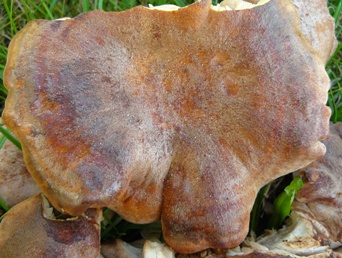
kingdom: Fungi
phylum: Basidiomycota
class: Agaricomycetes
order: Agaricales
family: Entolomataceae
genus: Clitopilus
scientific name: Clitopilus geminus
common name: kødfarvet troldhat
